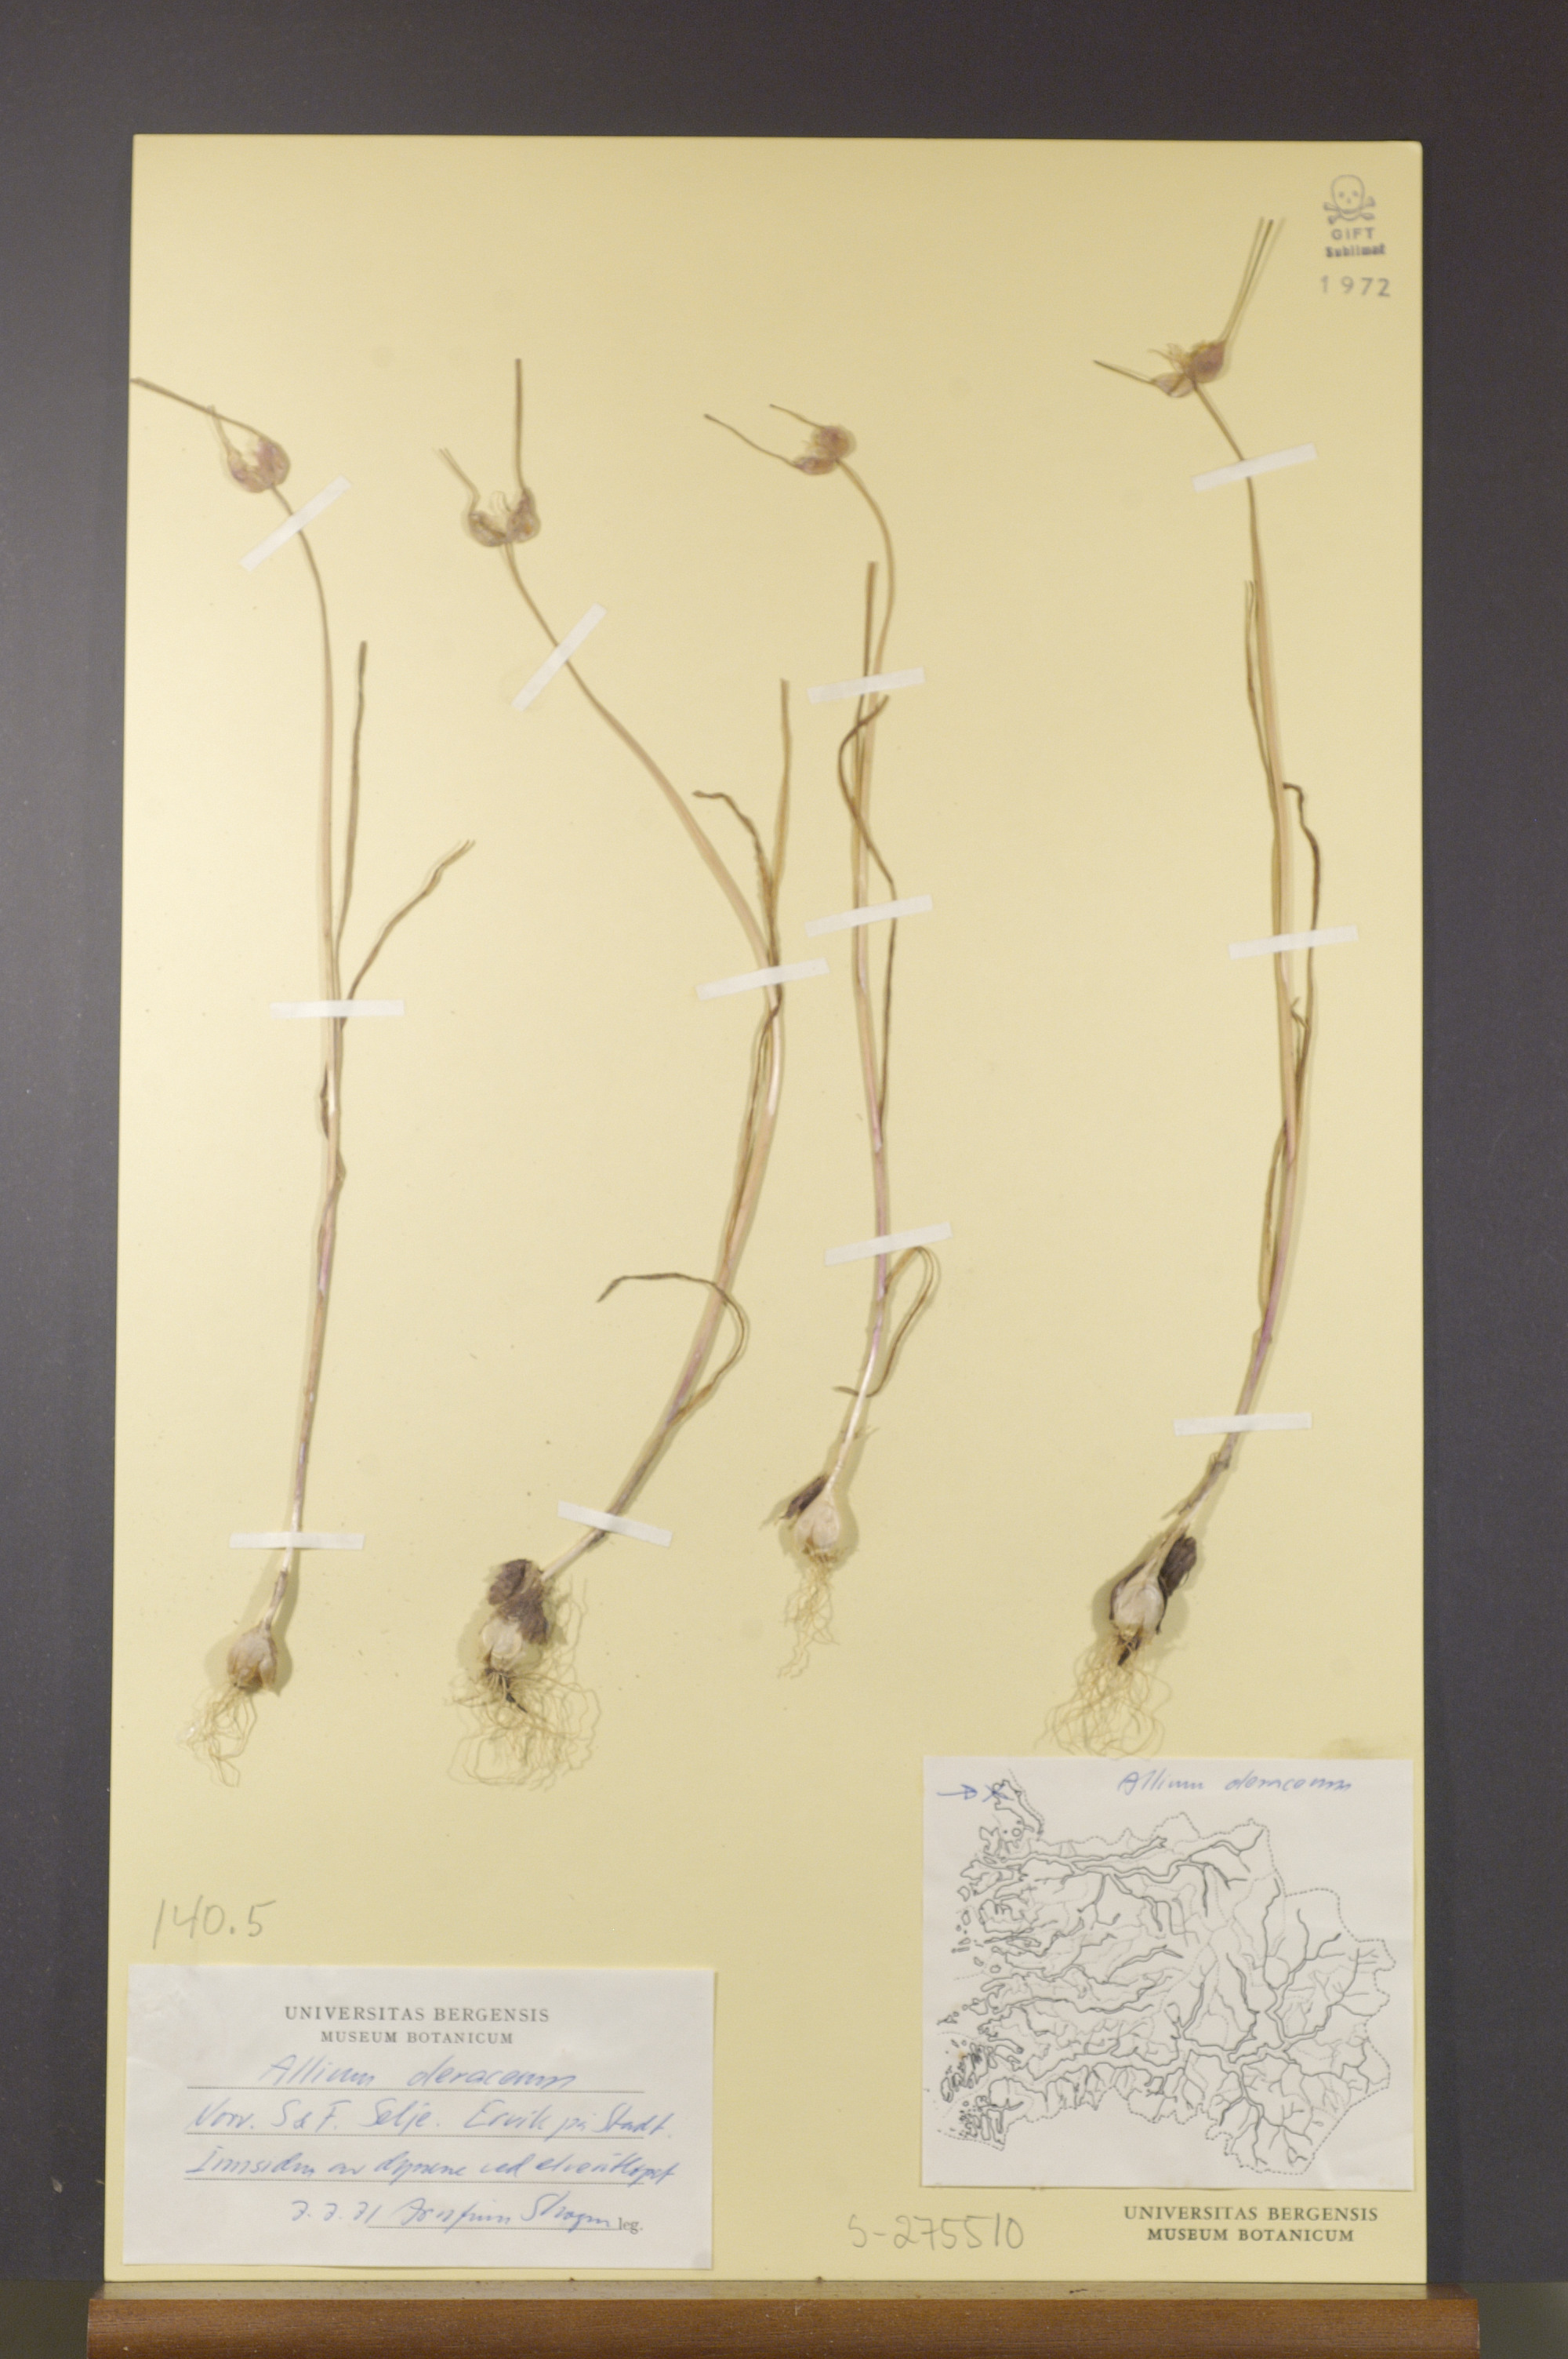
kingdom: Plantae
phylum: Tracheophyta
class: Liliopsida
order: Asparagales
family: Amaryllidaceae
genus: Allium
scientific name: Allium oleraceum
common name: Field garlic
